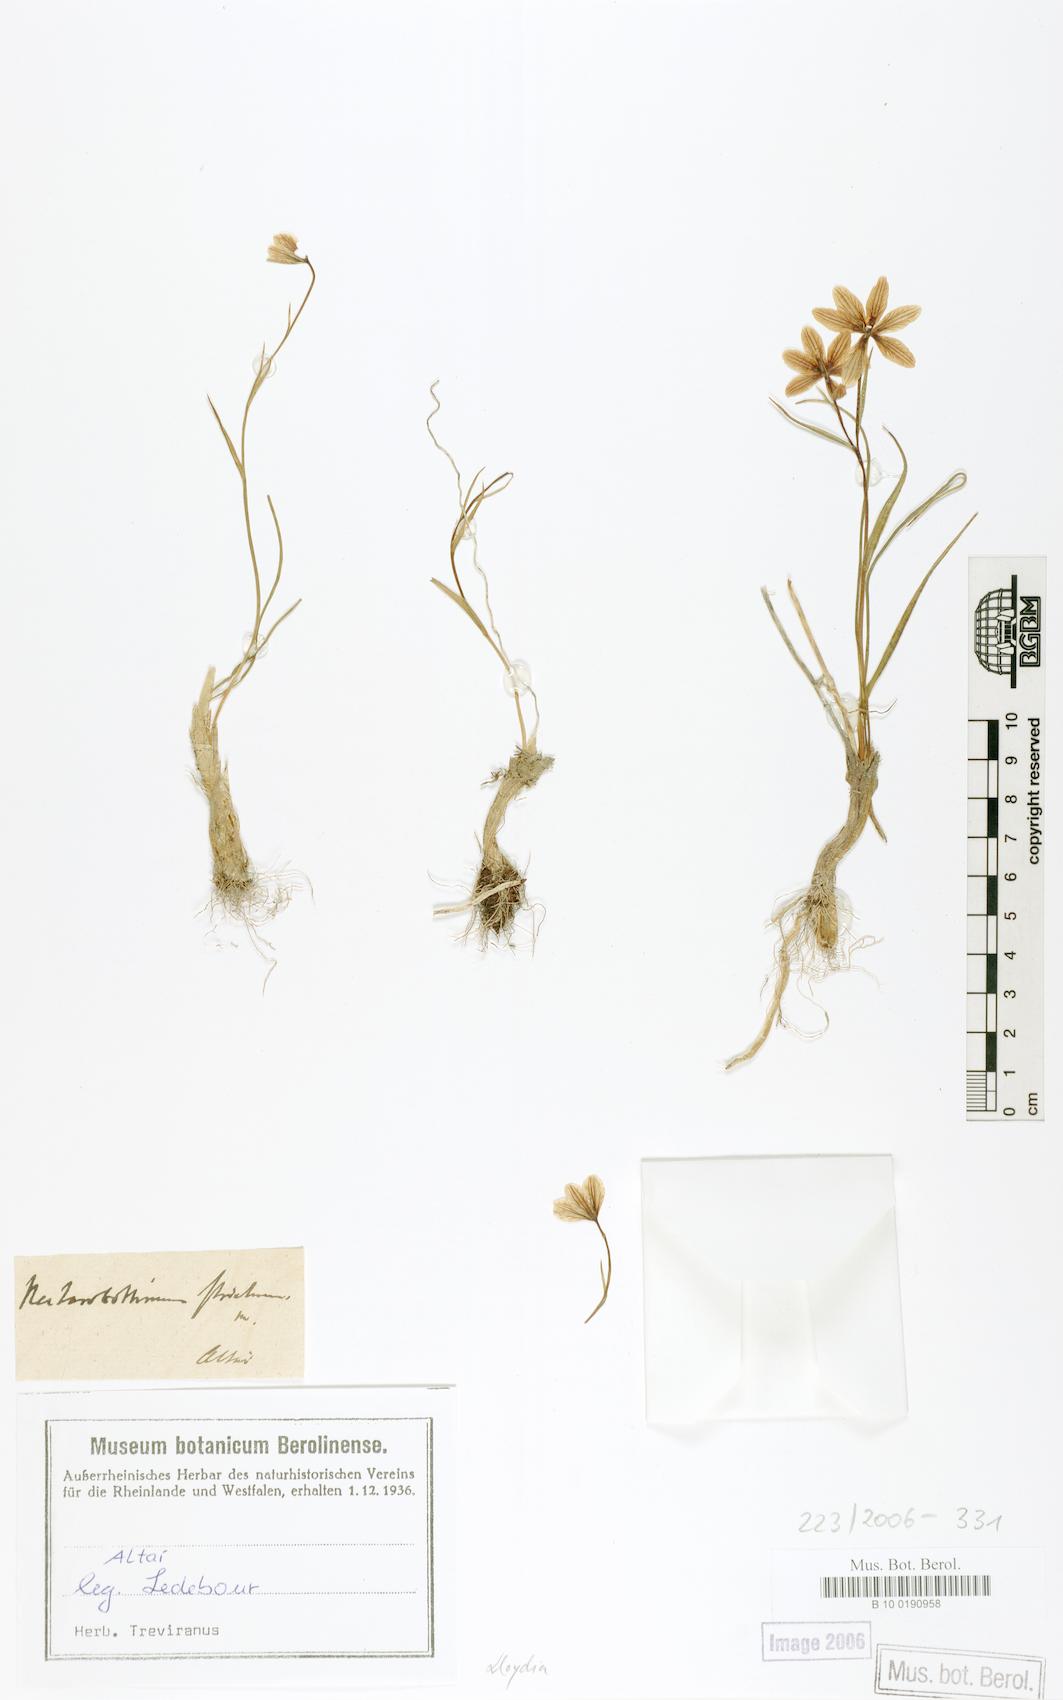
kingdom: Plantae
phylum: Tracheophyta
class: Liliopsida
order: Liliales
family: Liliaceae
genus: Lloydia
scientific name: Lloydia
